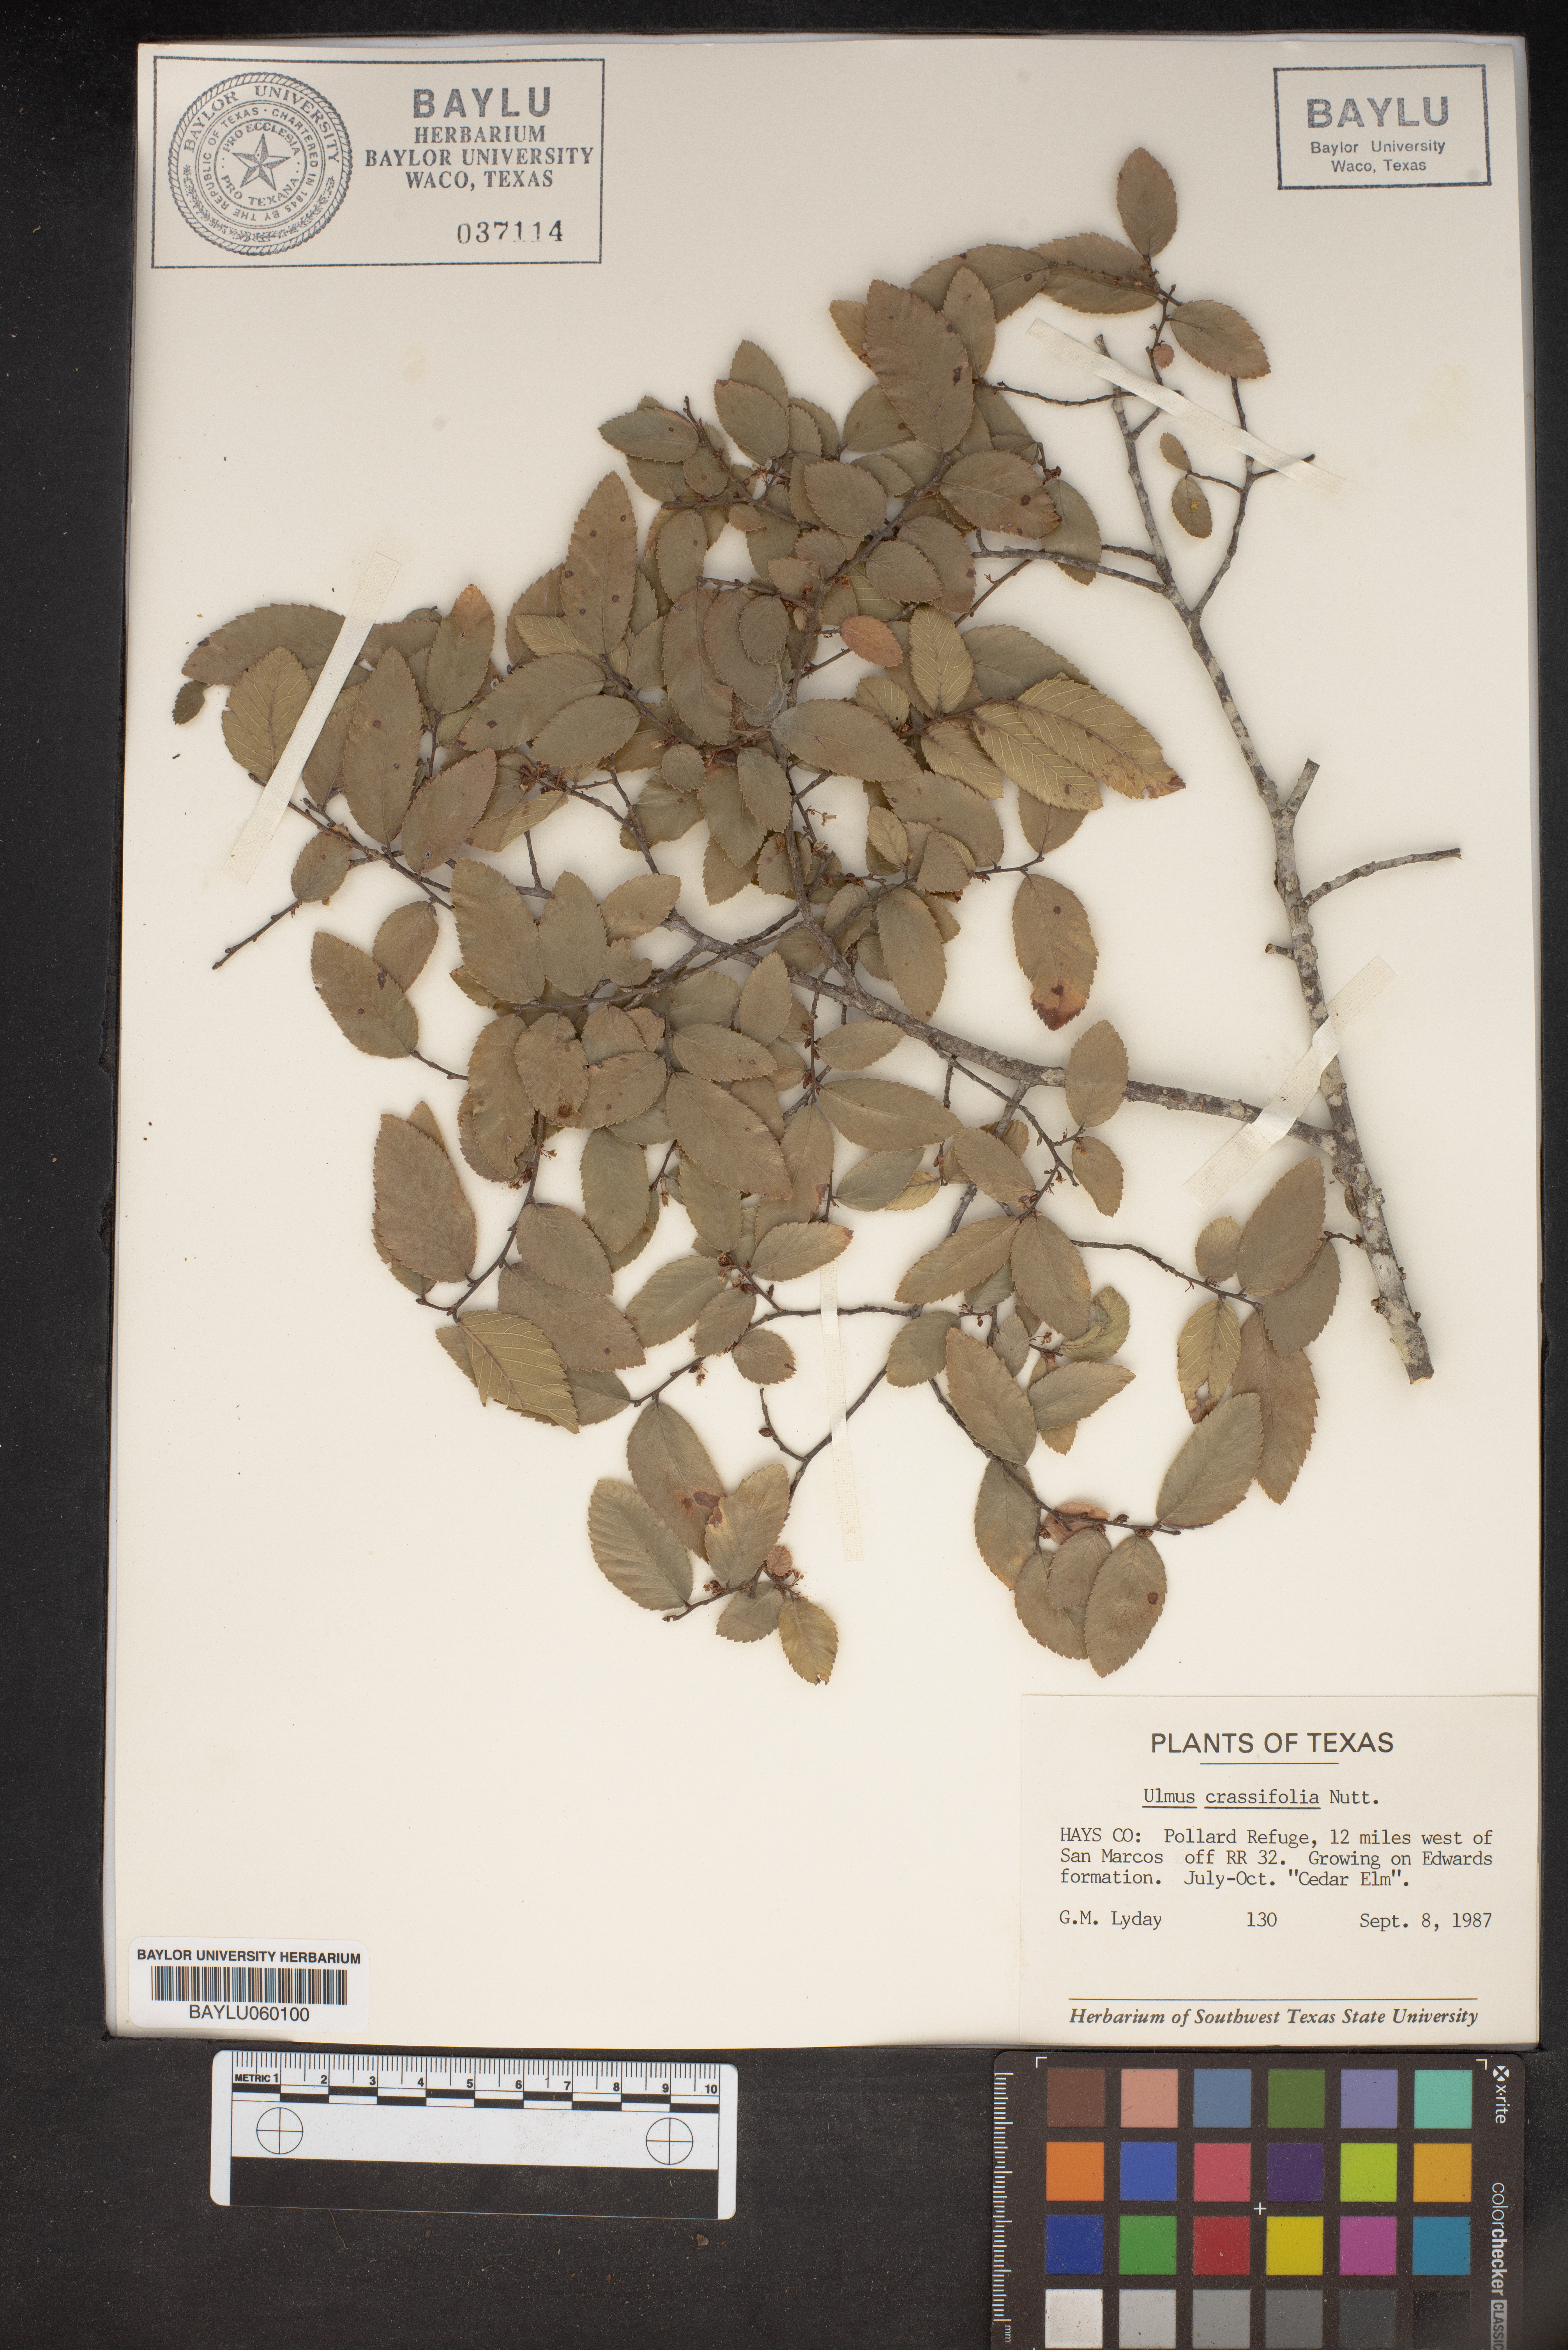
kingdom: Plantae
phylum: Tracheophyta
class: Magnoliopsida
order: Rosales
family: Ulmaceae
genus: Ulmus
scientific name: Ulmus crassifolia
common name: Basket elm
